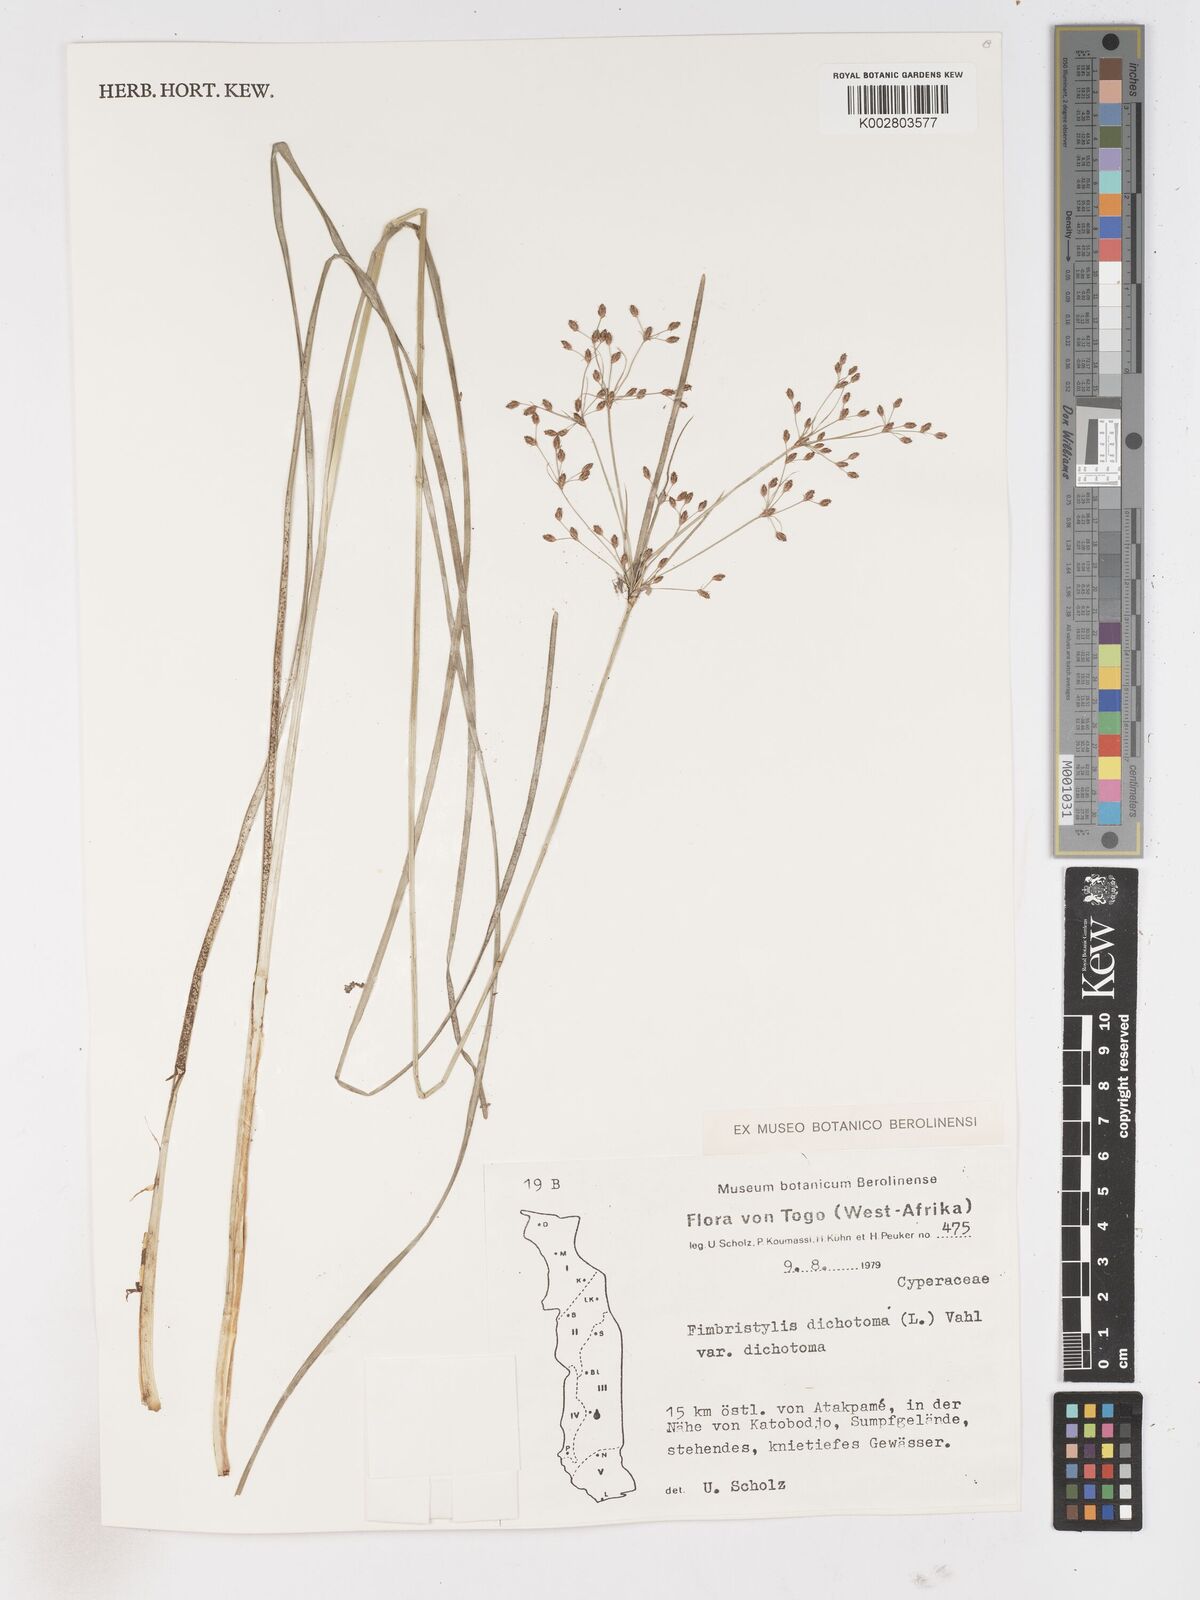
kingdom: Plantae
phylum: Tracheophyta
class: Liliopsida
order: Poales
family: Cyperaceae
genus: Fimbristylis
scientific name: Fimbristylis dichotoma
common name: Forked fimbry
